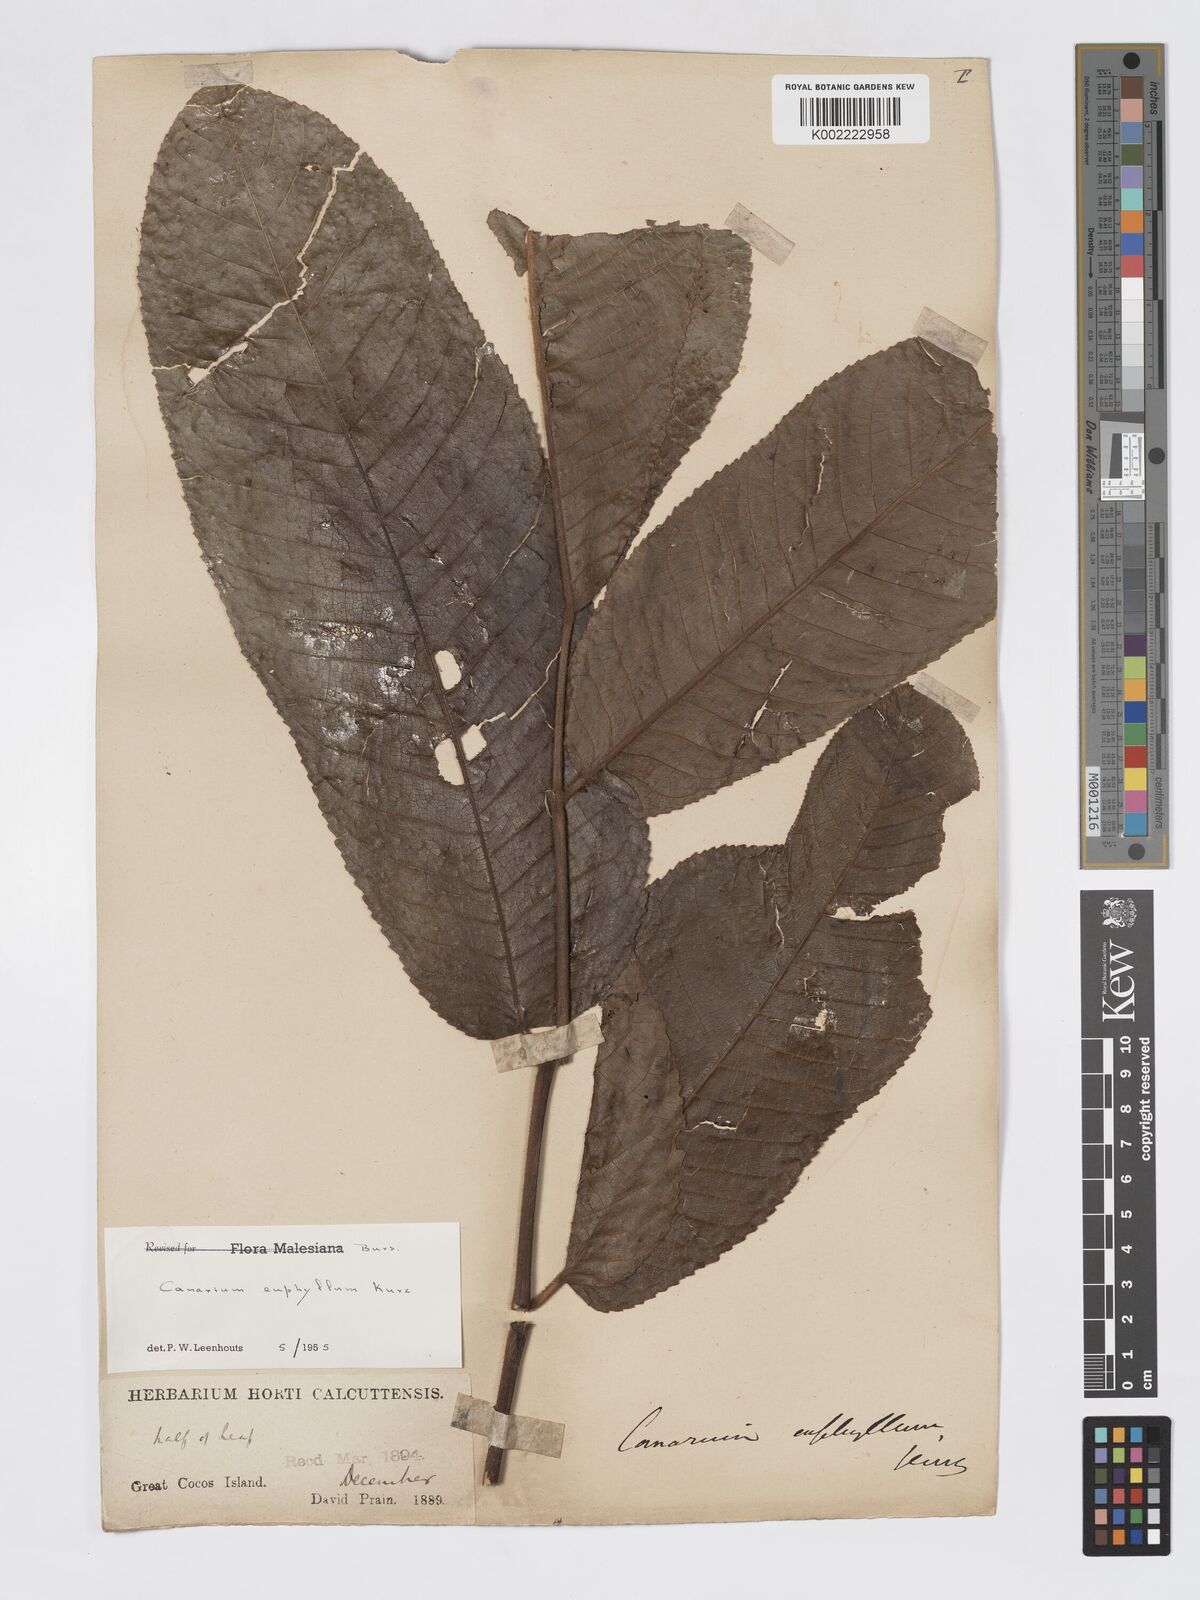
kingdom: Plantae
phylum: Tracheophyta
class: Magnoliopsida
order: Sapindales
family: Burseraceae
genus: Canarium
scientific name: Canarium euphyllum
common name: White dhup
